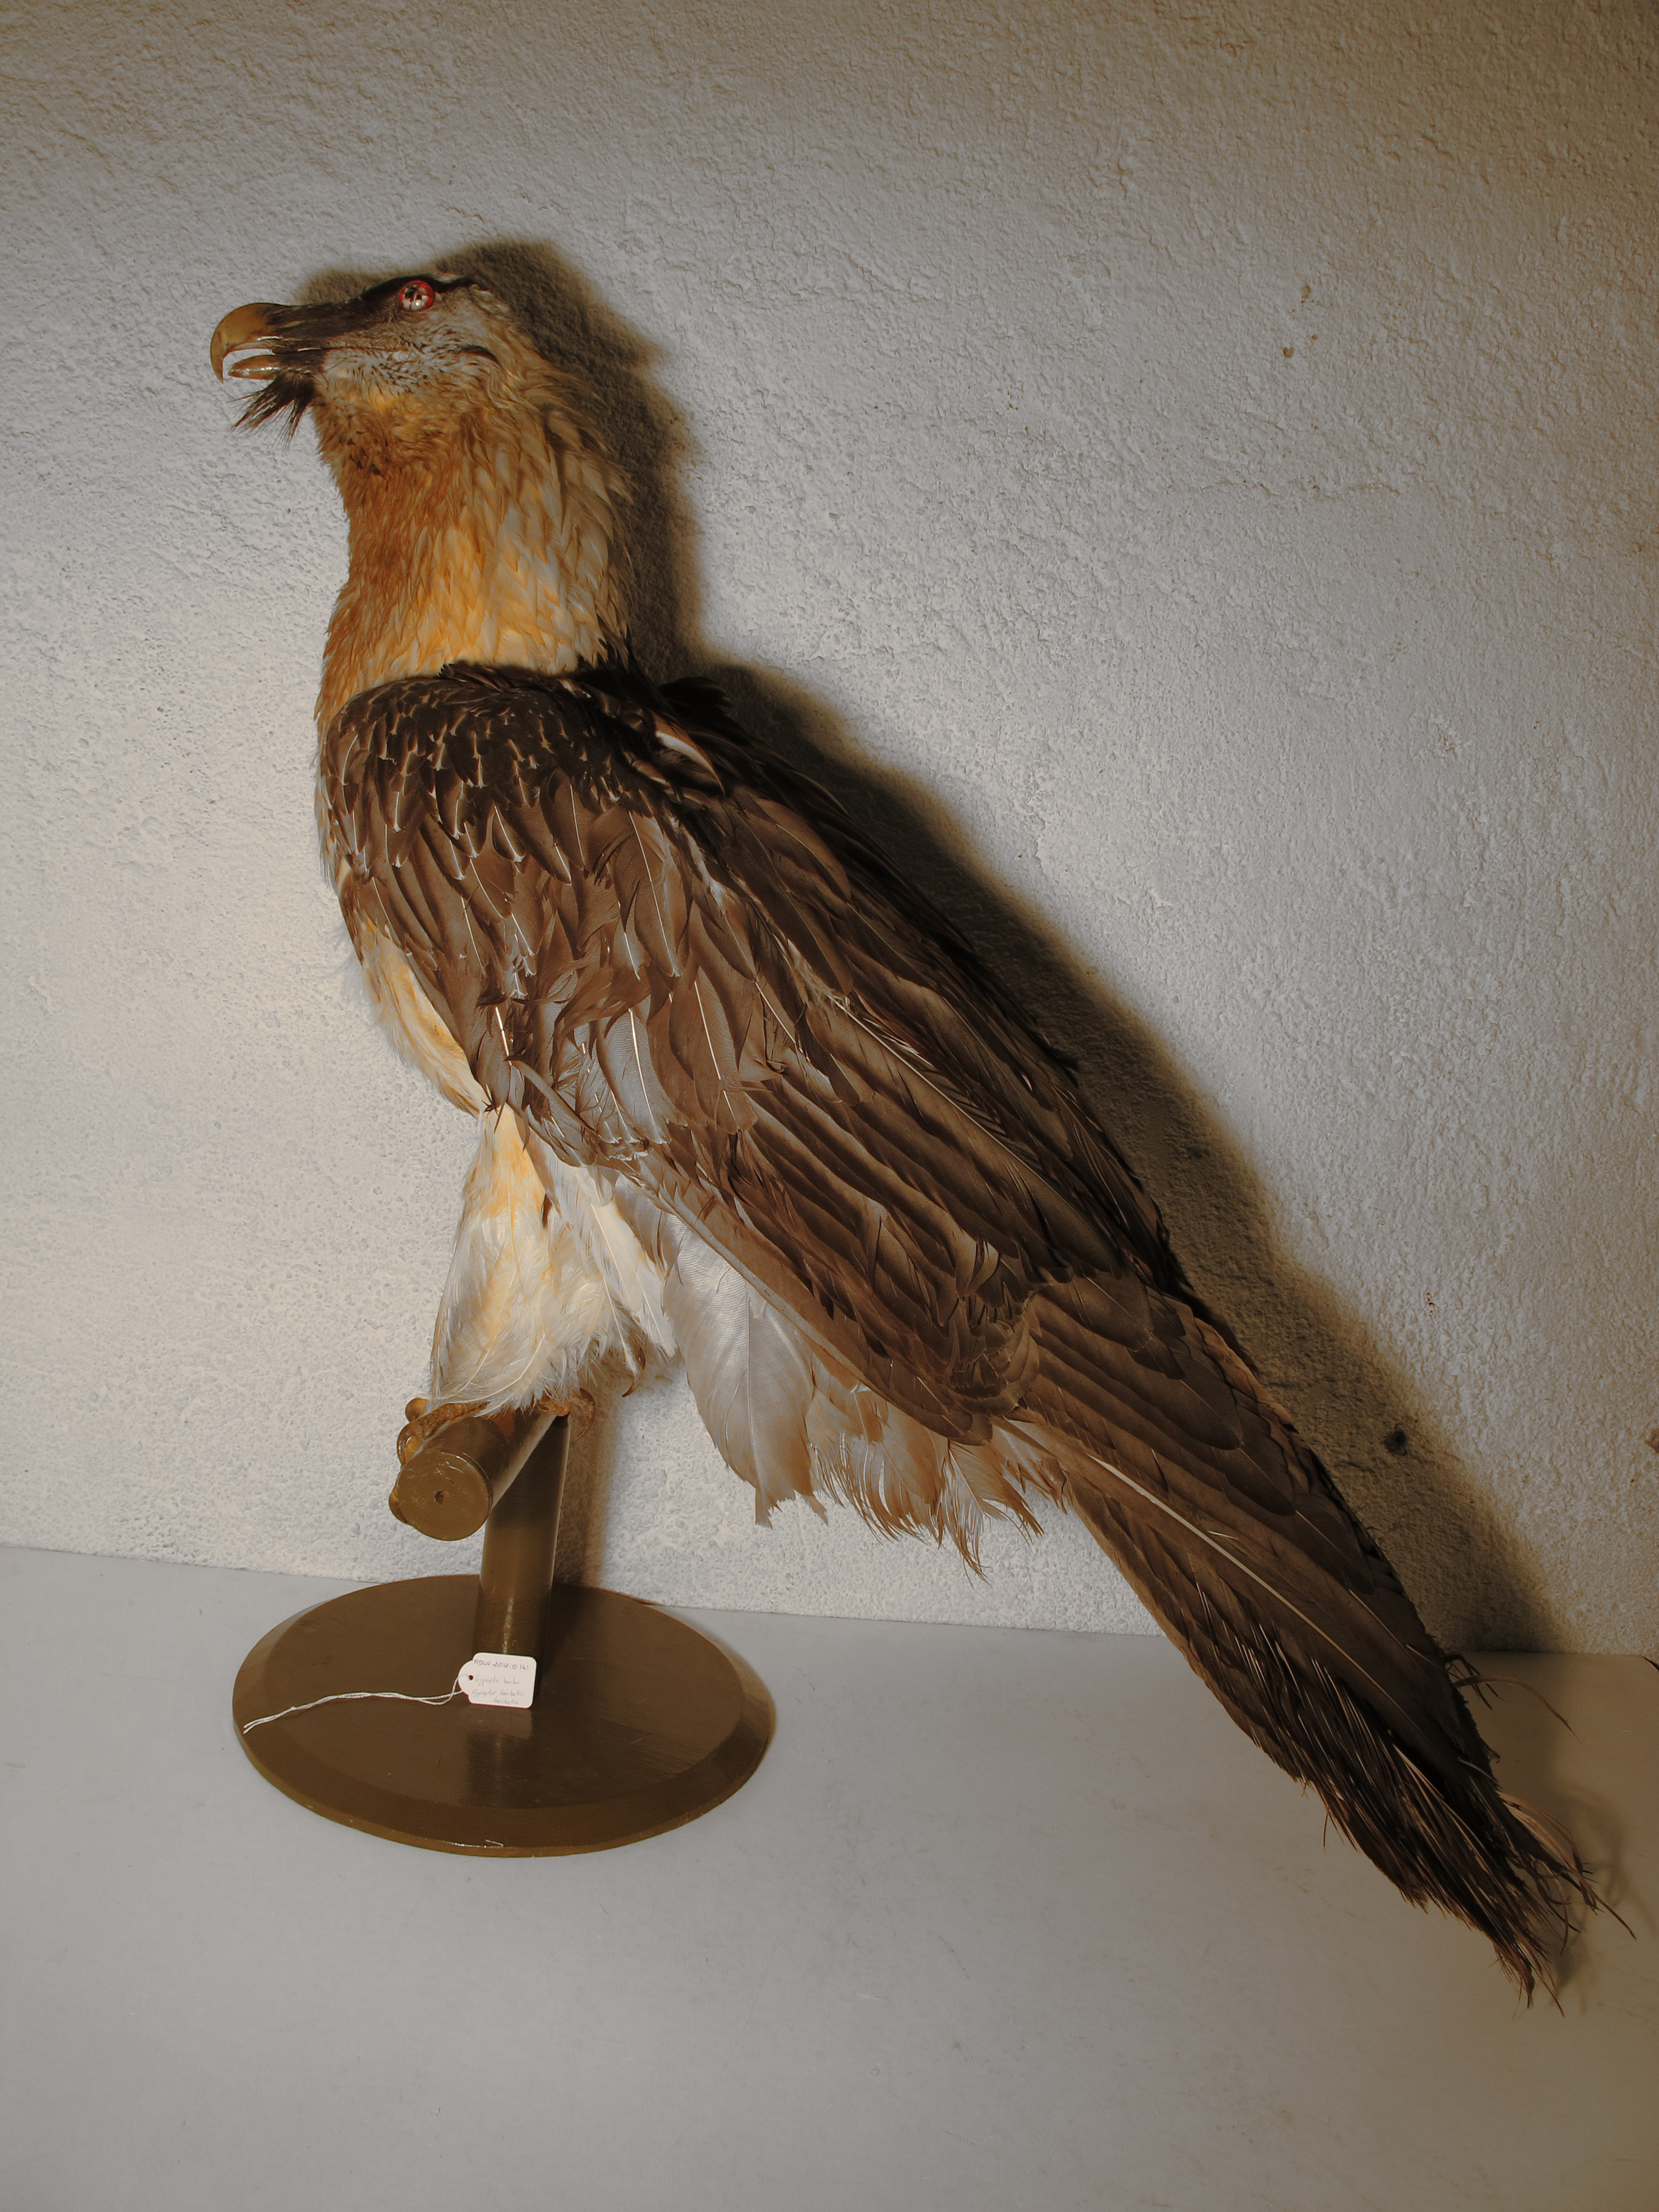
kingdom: Animalia
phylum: Chordata
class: Aves
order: Accipitriformes
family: Accipitridae
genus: Gypaetus
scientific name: Gypaetus barbatus
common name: Bearded Vulture
